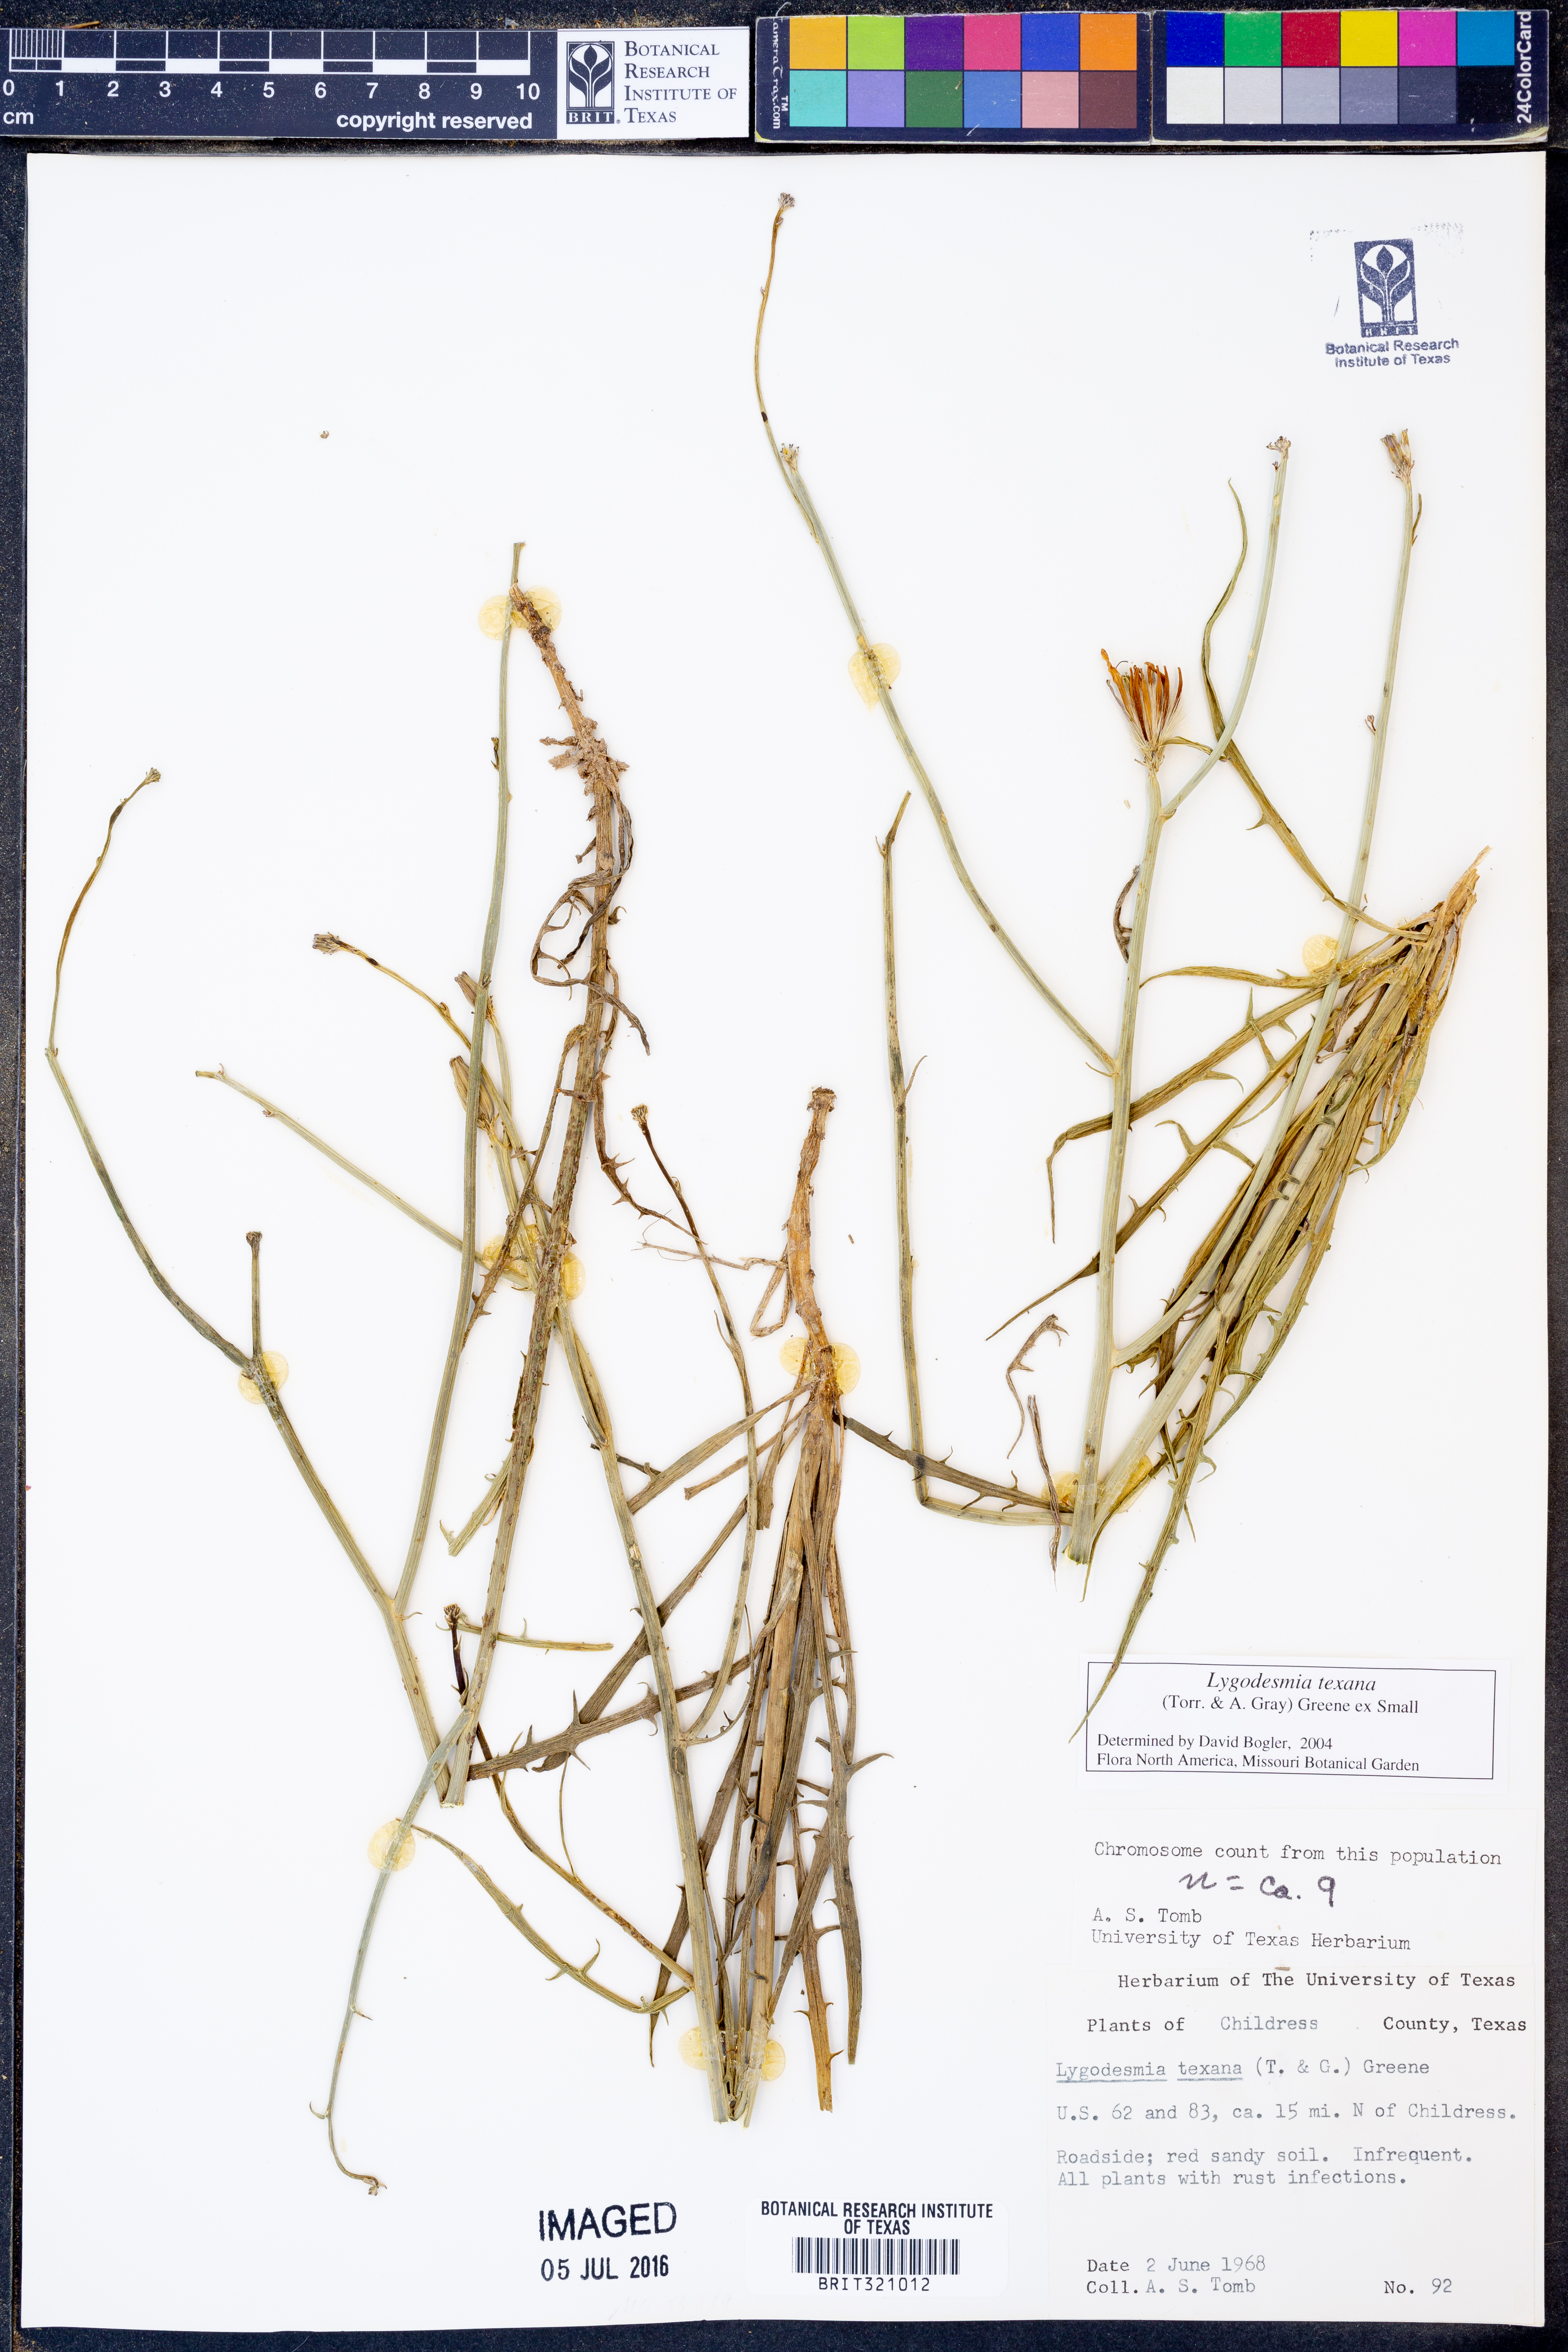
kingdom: Plantae
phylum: Tracheophyta
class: Magnoliopsida
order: Asterales
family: Asteraceae
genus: Lygodesmia
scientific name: Lygodesmia texana
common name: Texas skeleton-plant
